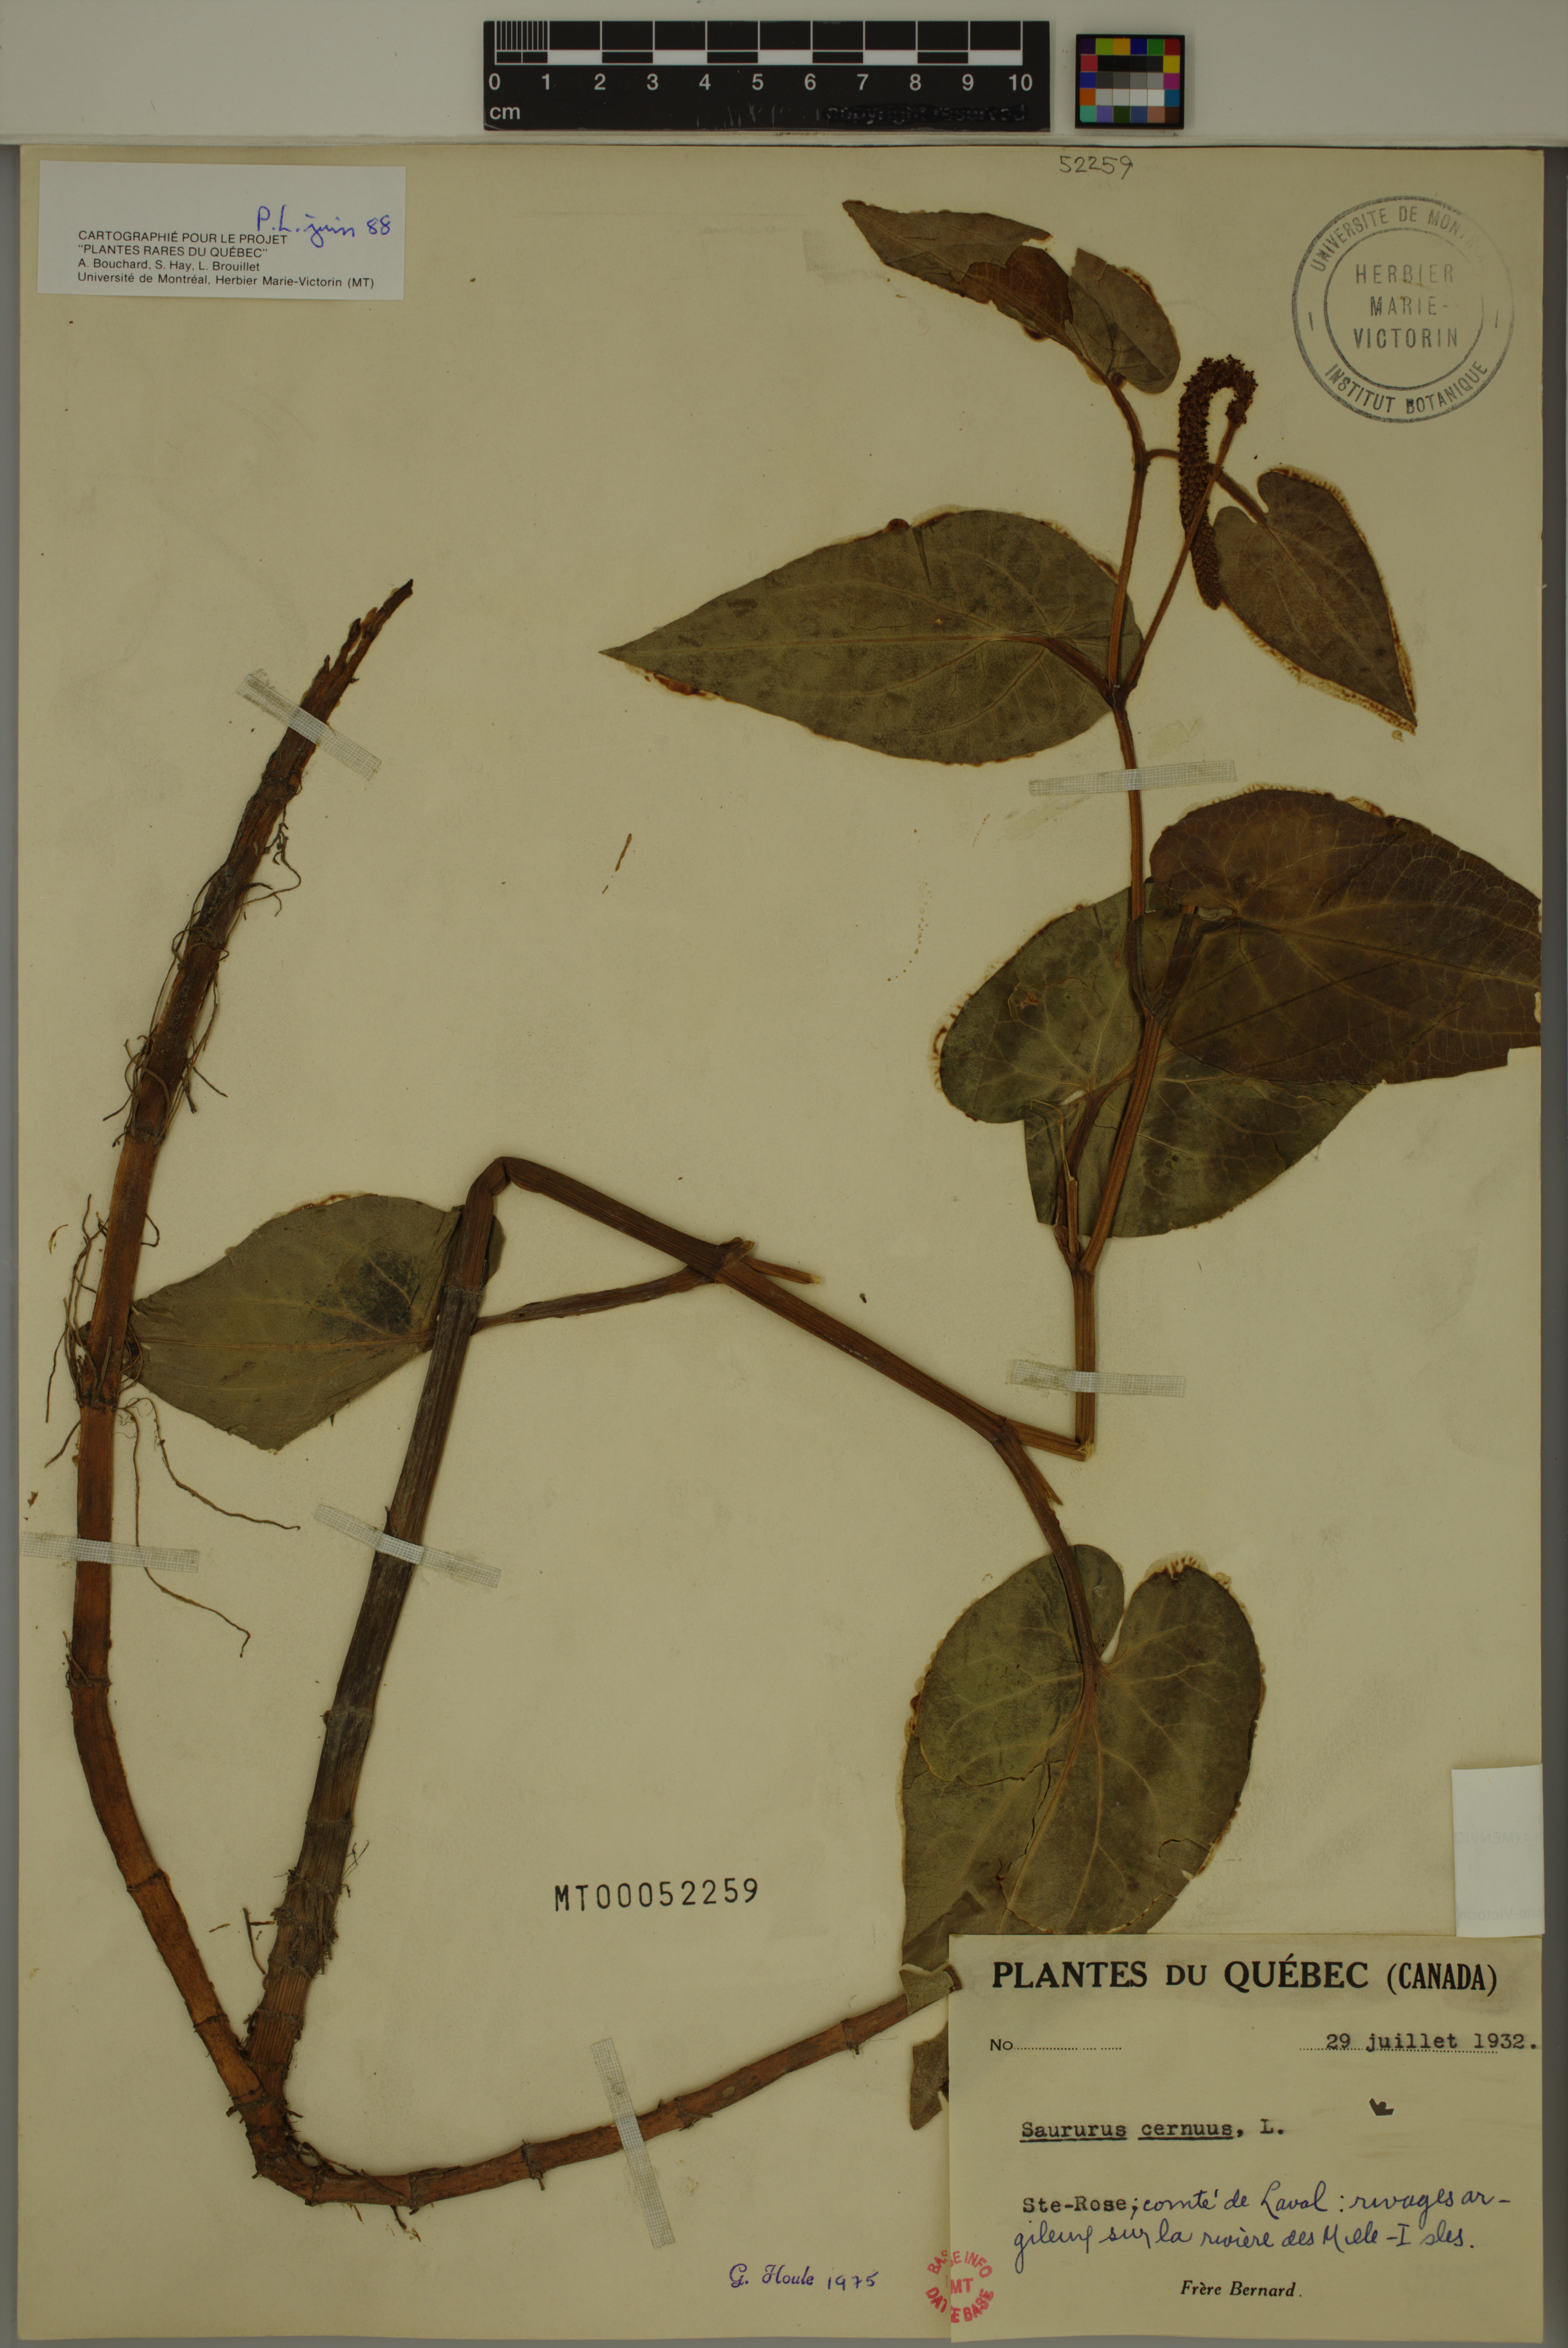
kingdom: Plantae
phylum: Tracheophyta
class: Magnoliopsida
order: Piperales
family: Saururaceae
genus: Saururus
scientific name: Saururus cernuus
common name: Lizard's-tail
